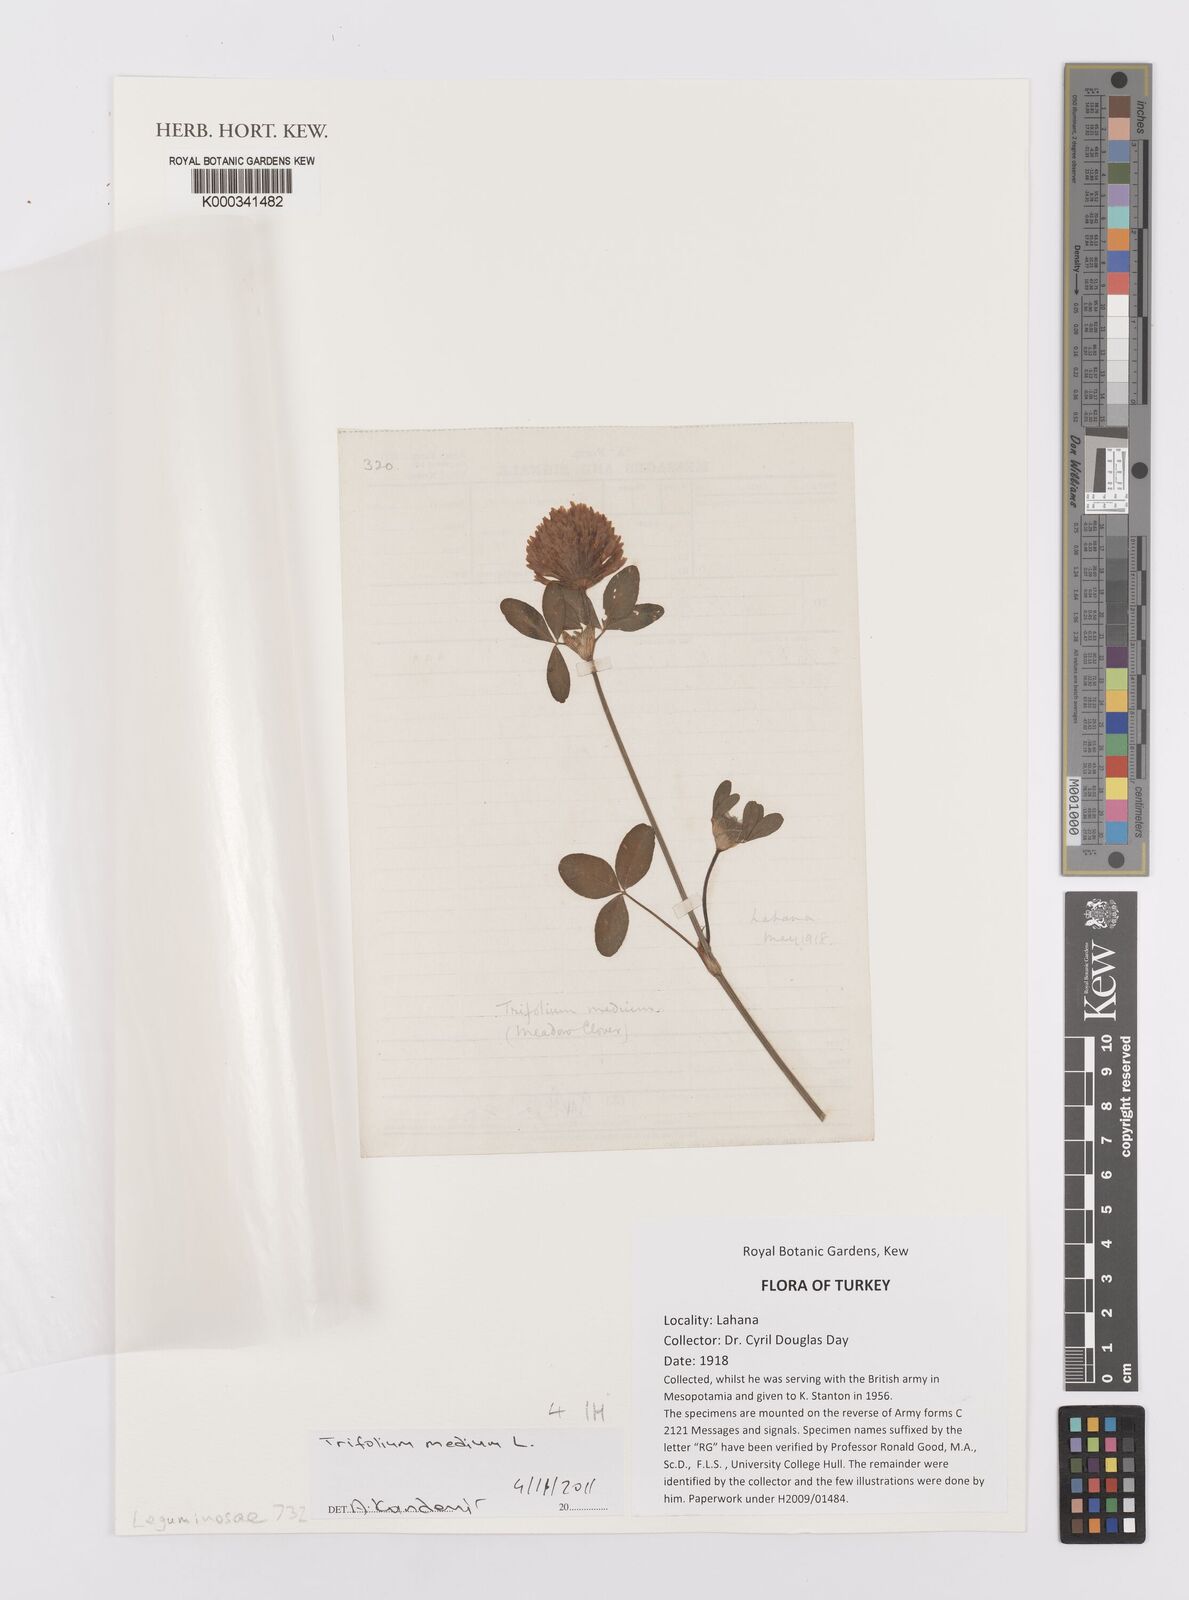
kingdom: Plantae
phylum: Tracheophyta
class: Magnoliopsida
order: Fabales
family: Fabaceae
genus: Trifolium
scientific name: Trifolium medium
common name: Zigzag clover
